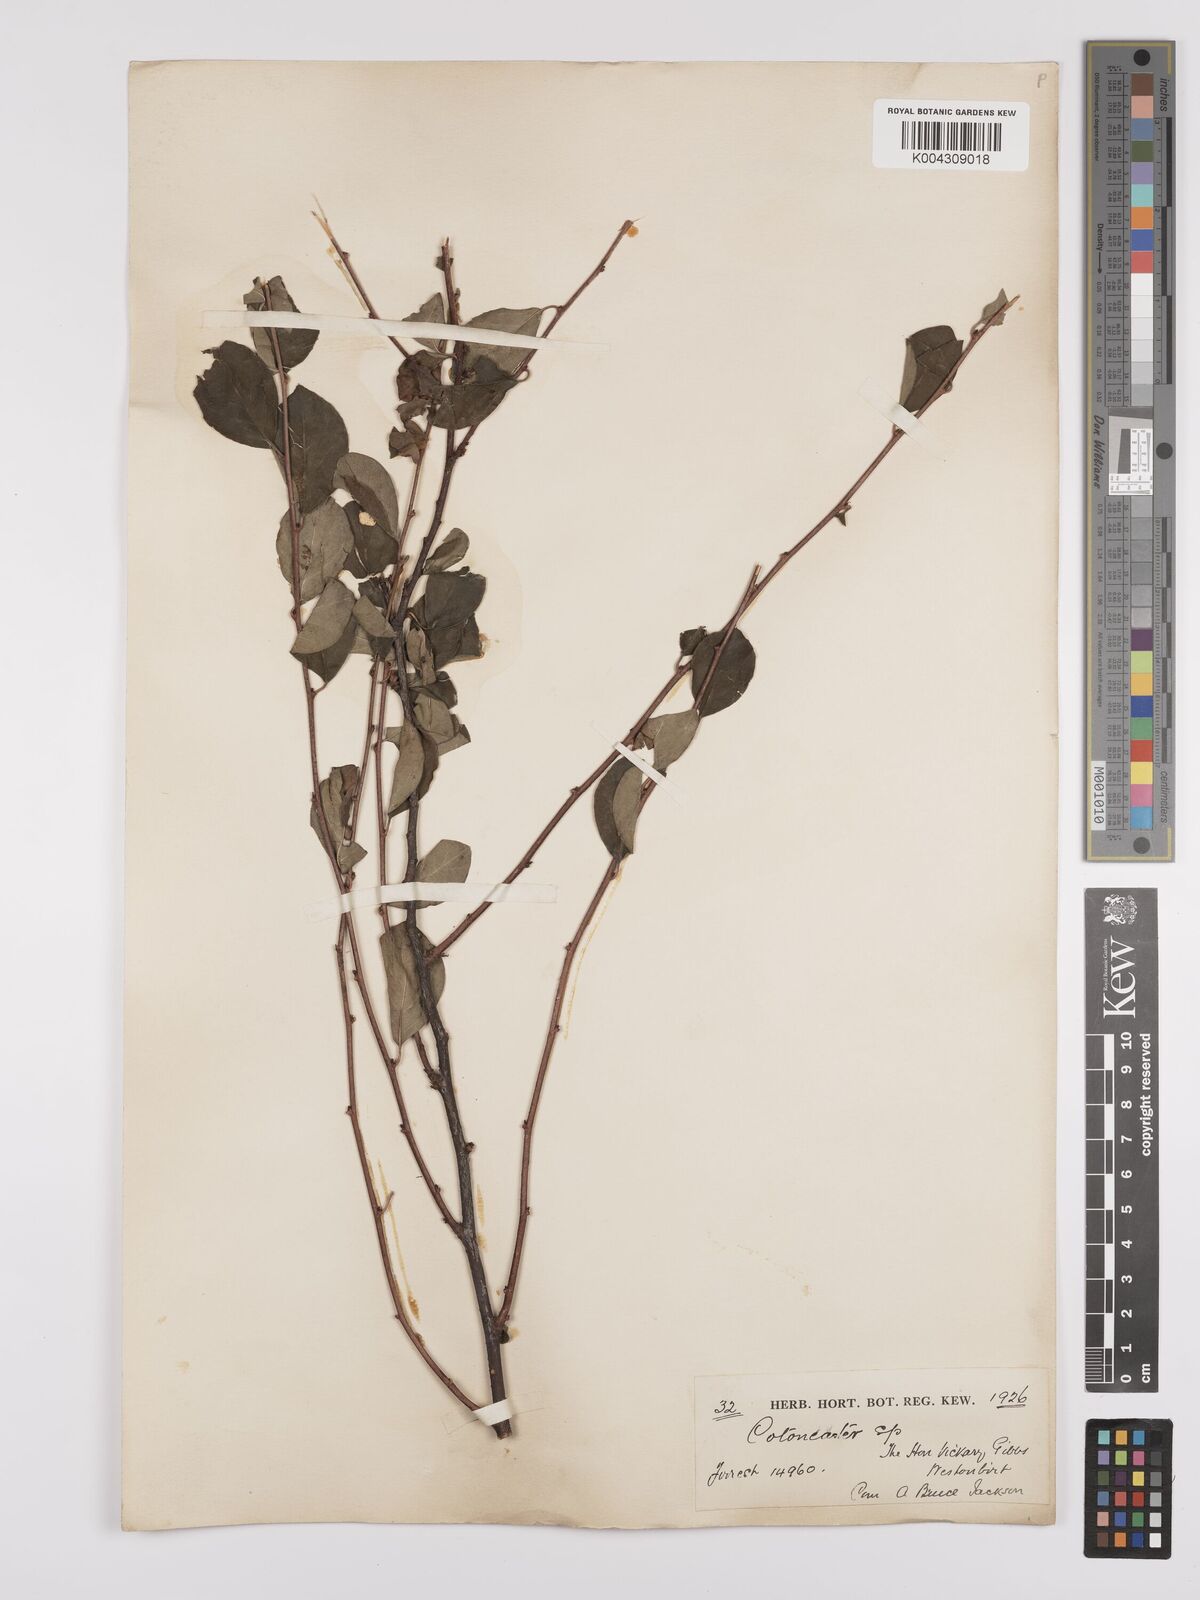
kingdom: Plantae
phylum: Tracheophyta
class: Magnoliopsida
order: Rosales
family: Rosaceae
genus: Cotoneaster
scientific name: Cotoneaster
